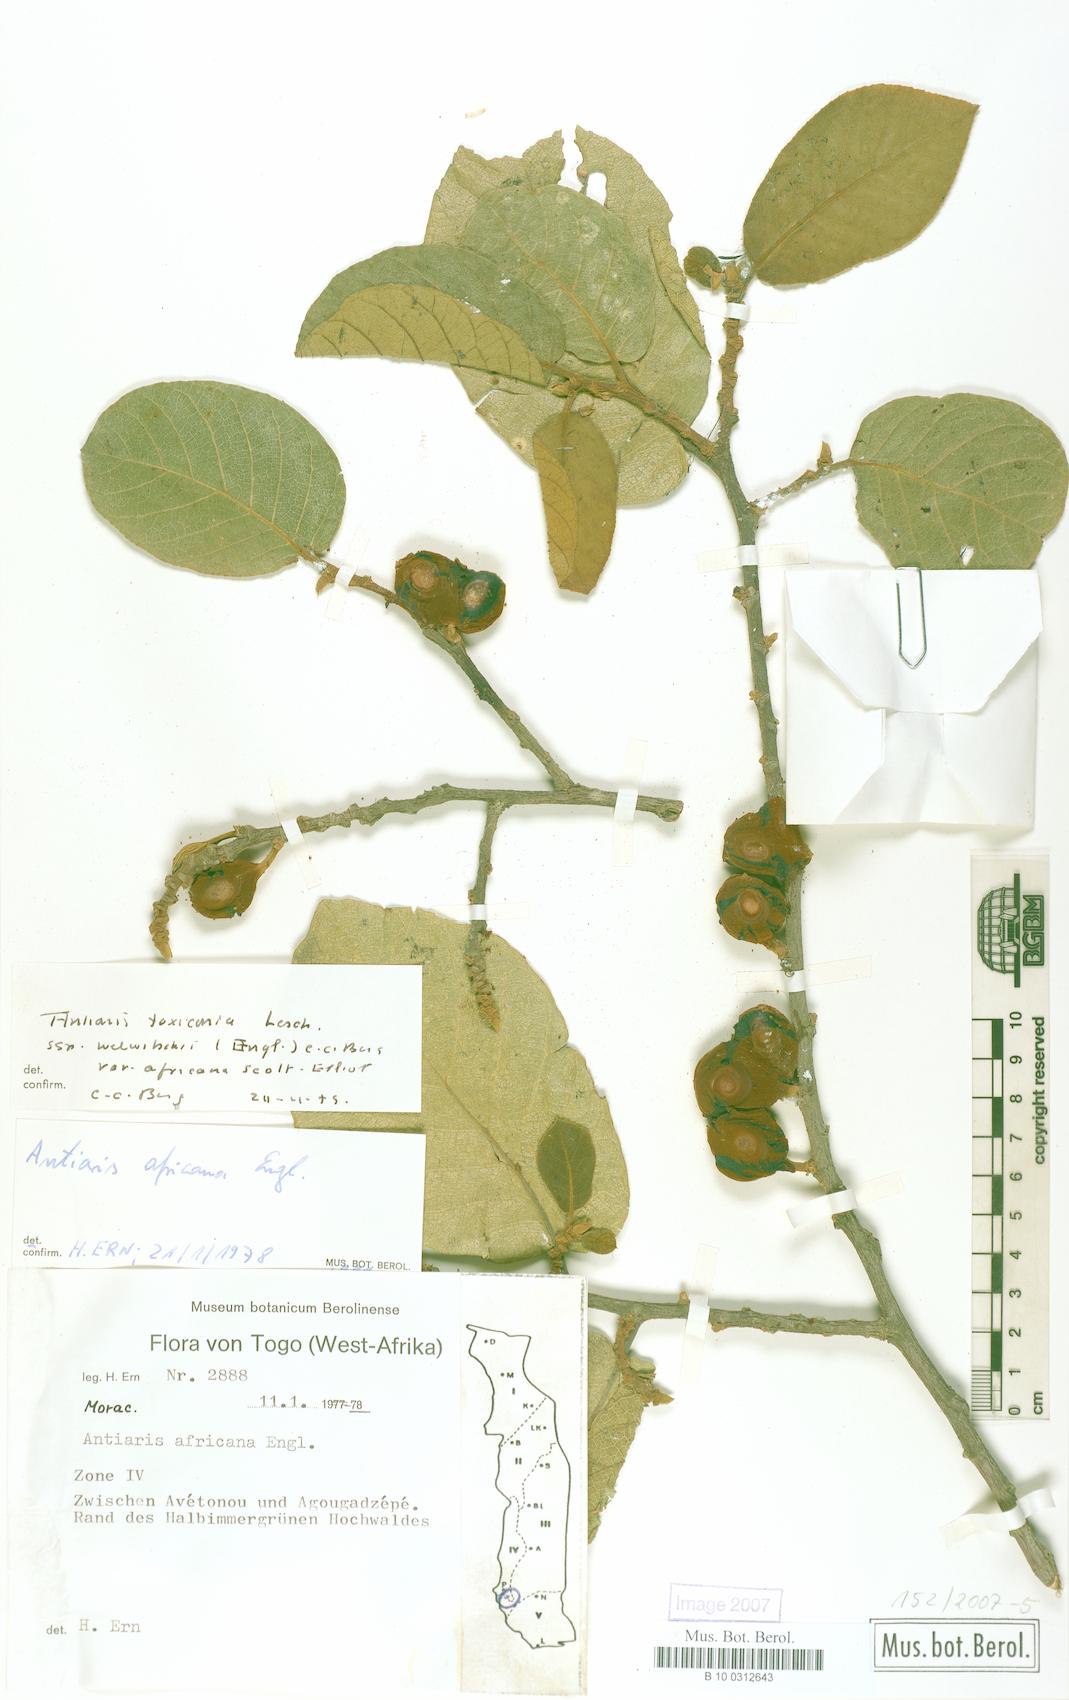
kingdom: Plantae
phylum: Tracheophyta
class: Magnoliopsida
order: Rosales
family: Moraceae
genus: Antiaris
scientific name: Antiaris toxicaria
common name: Sackingtree
